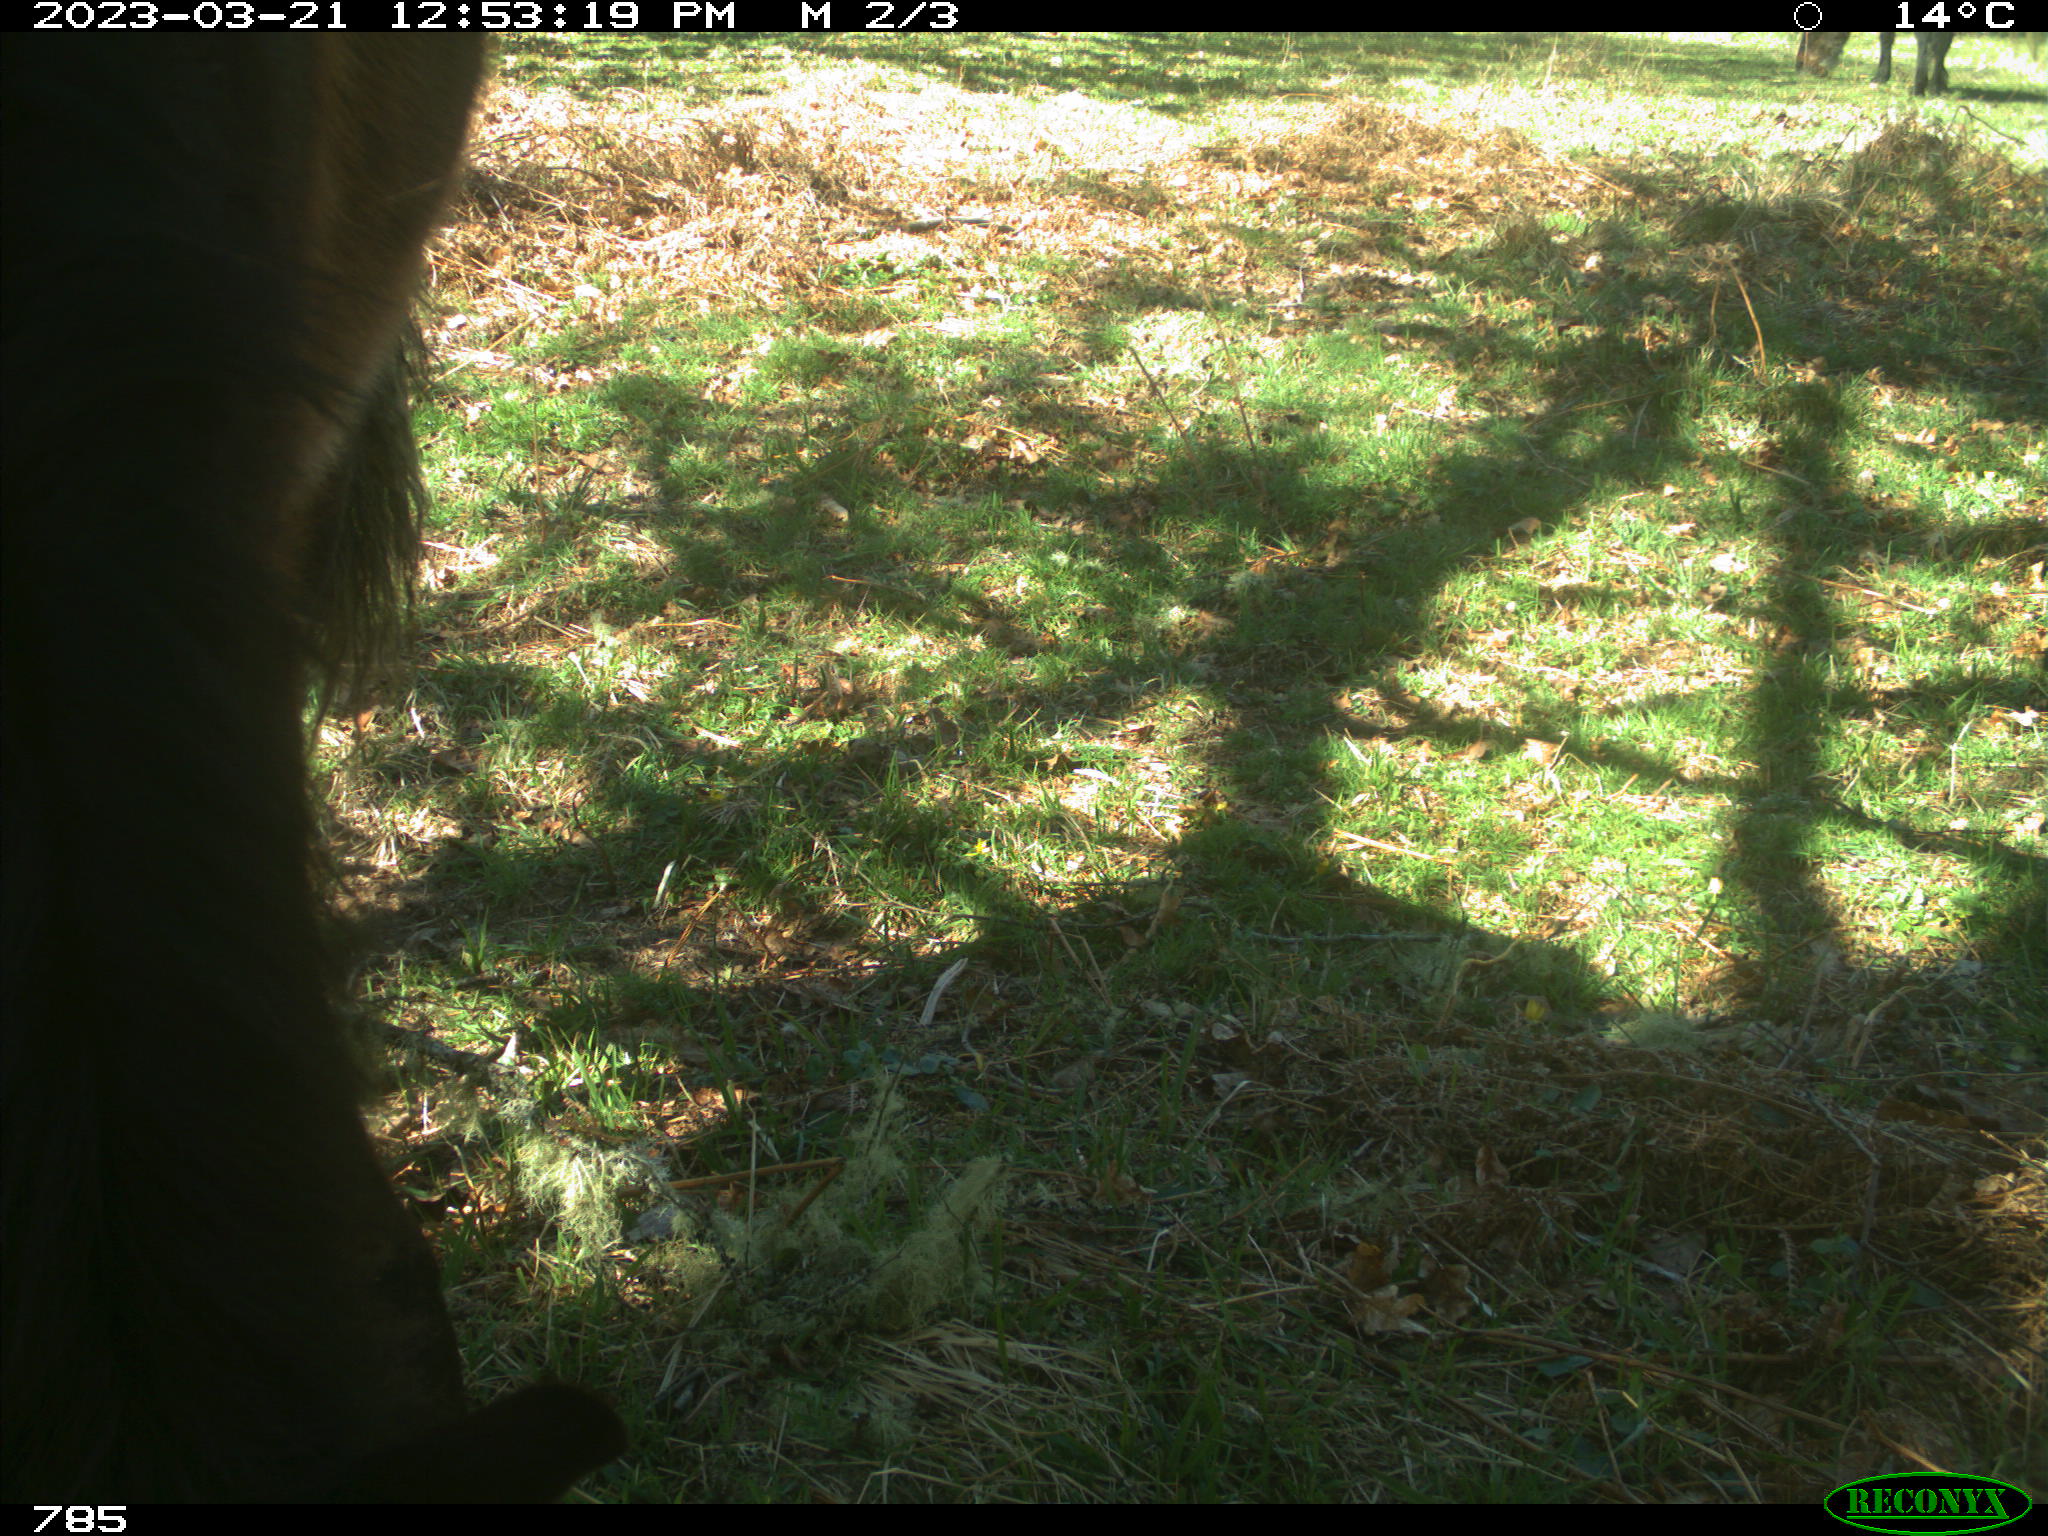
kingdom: Animalia
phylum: Chordata
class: Mammalia
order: Perissodactyla
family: Equidae
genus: Equus
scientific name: Equus caballus
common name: Horse
